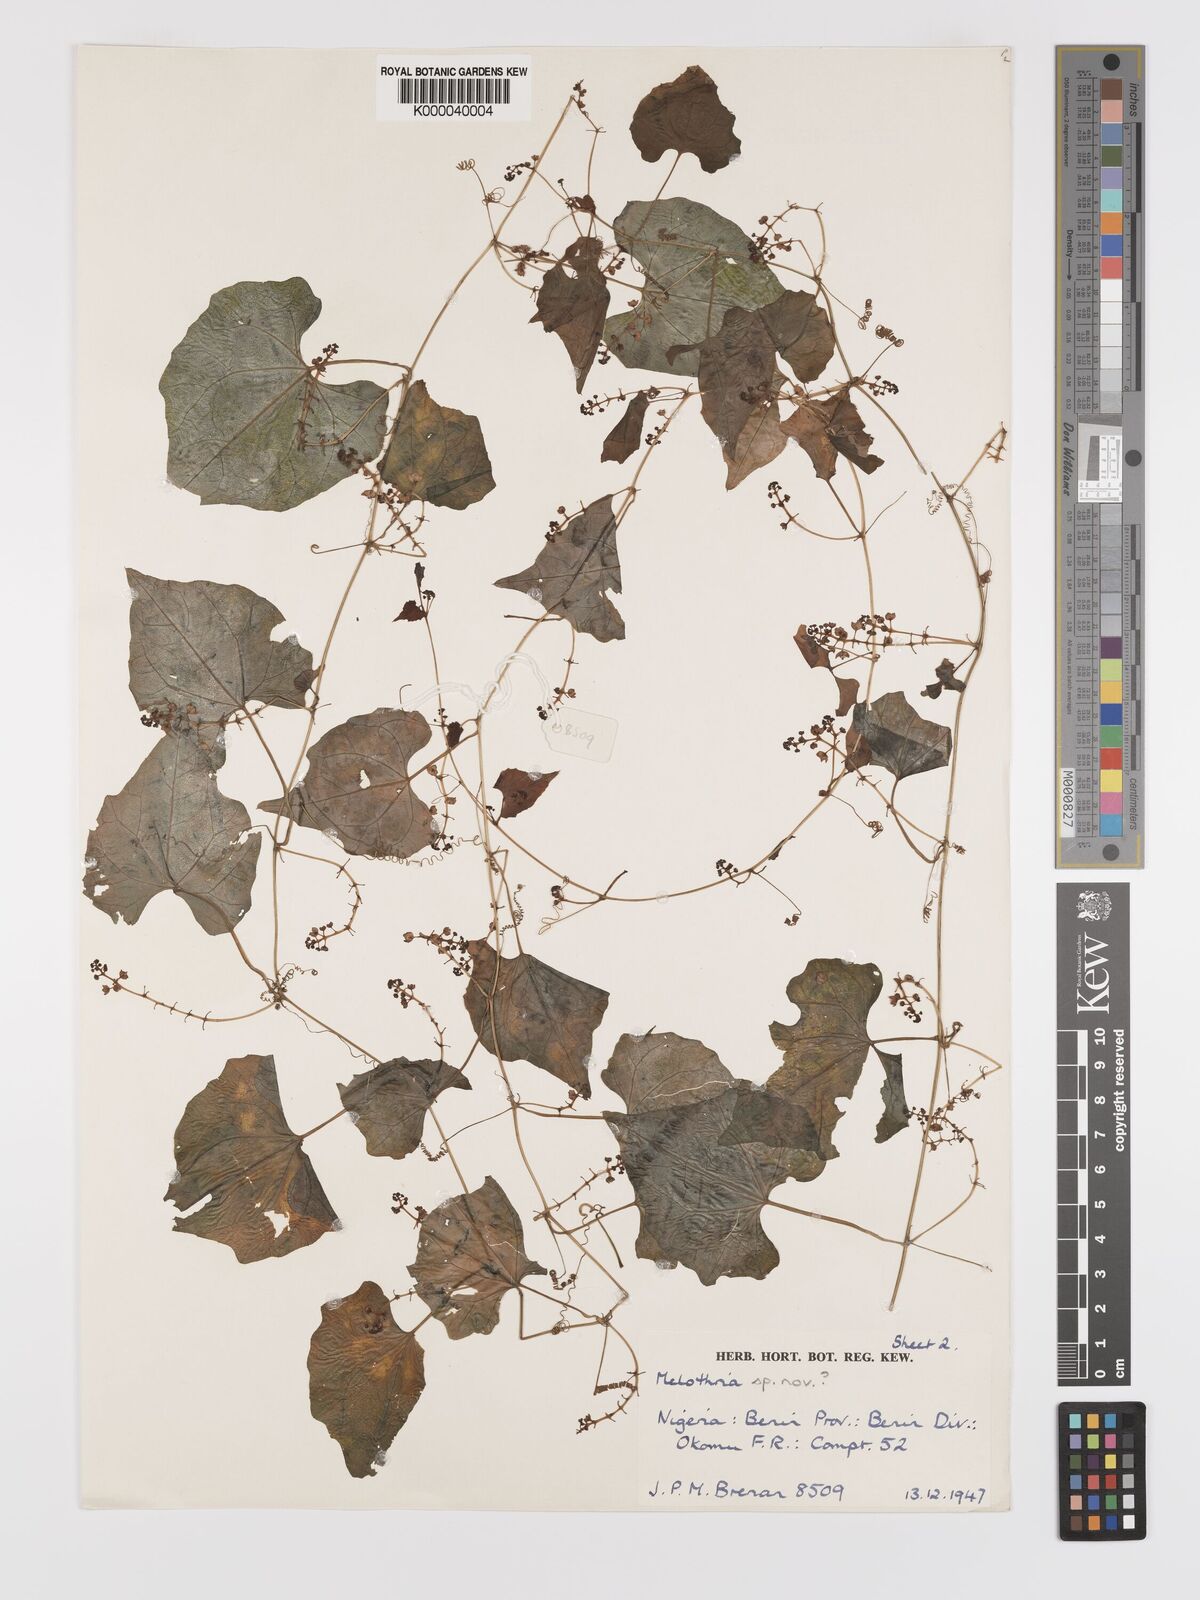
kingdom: Plantae
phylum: Tracheophyta
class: Magnoliopsida
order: Cucurbitales
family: Cucurbitaceae
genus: Zehneria
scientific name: Zehneria keayana
